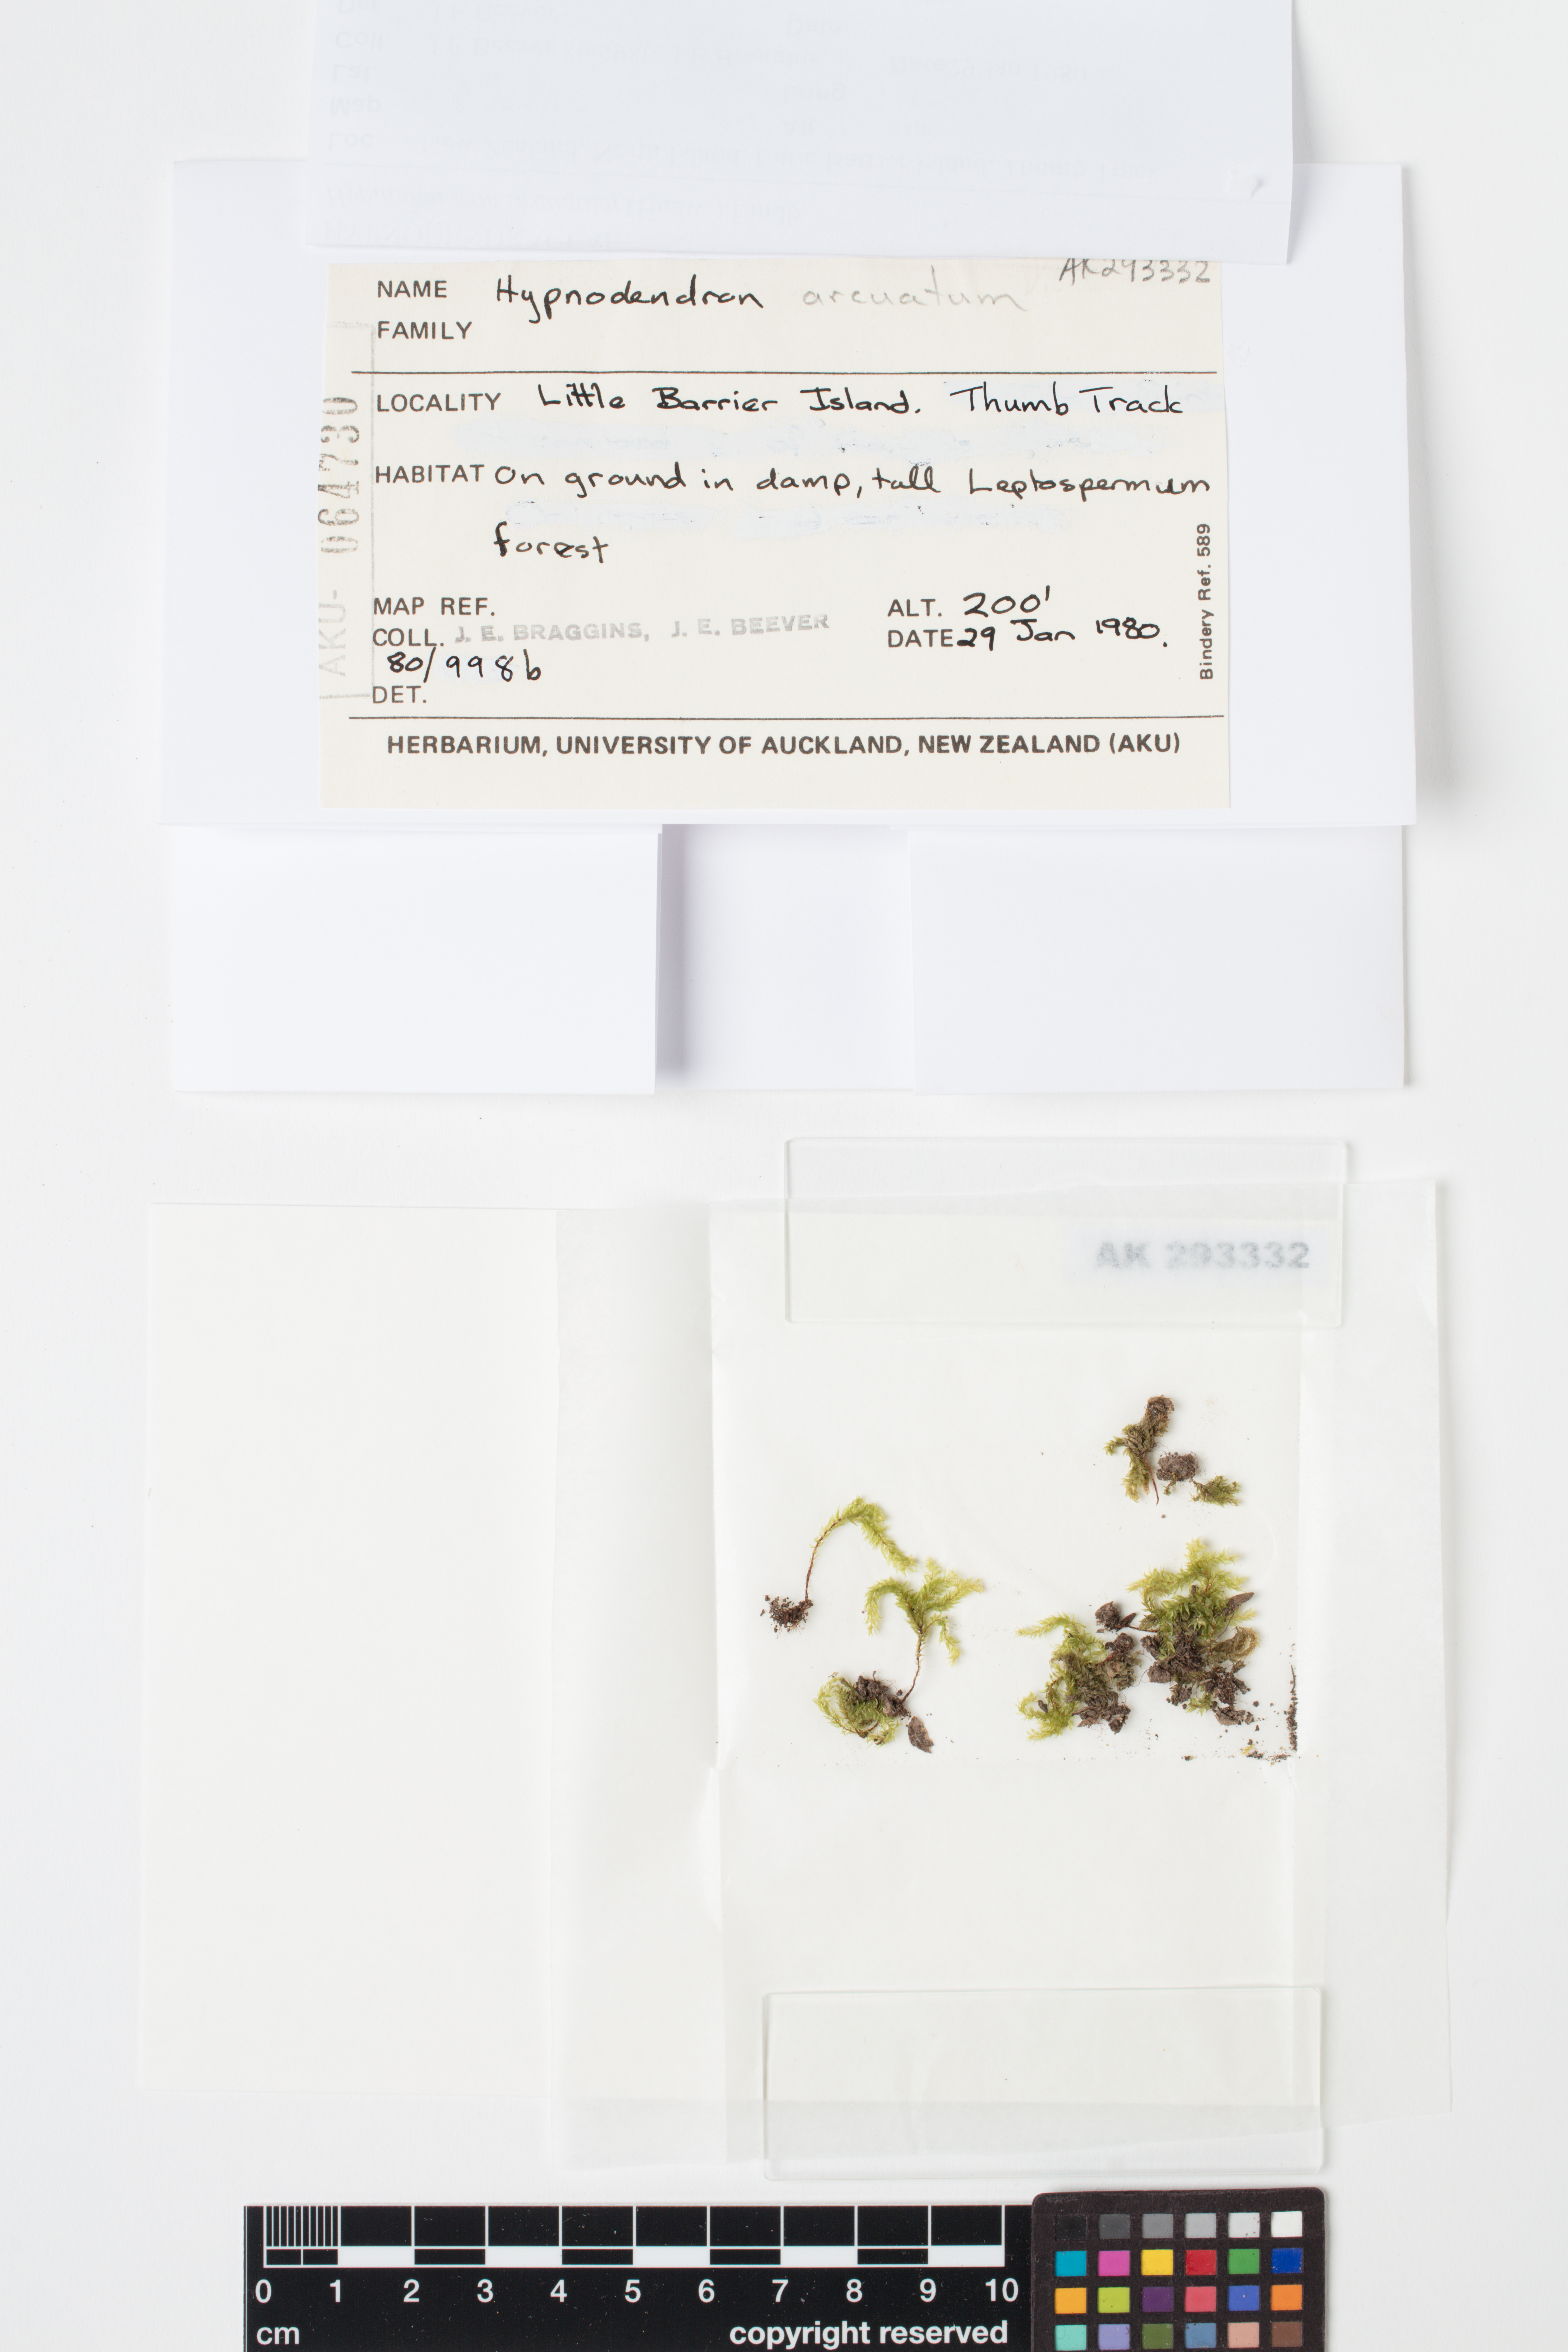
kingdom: Plantae
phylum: Bryophyta
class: Bryopsida
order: Hypnodendrales
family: Spiridentaceae
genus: Hypnodendron
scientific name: Hypnodendron arcuatum
